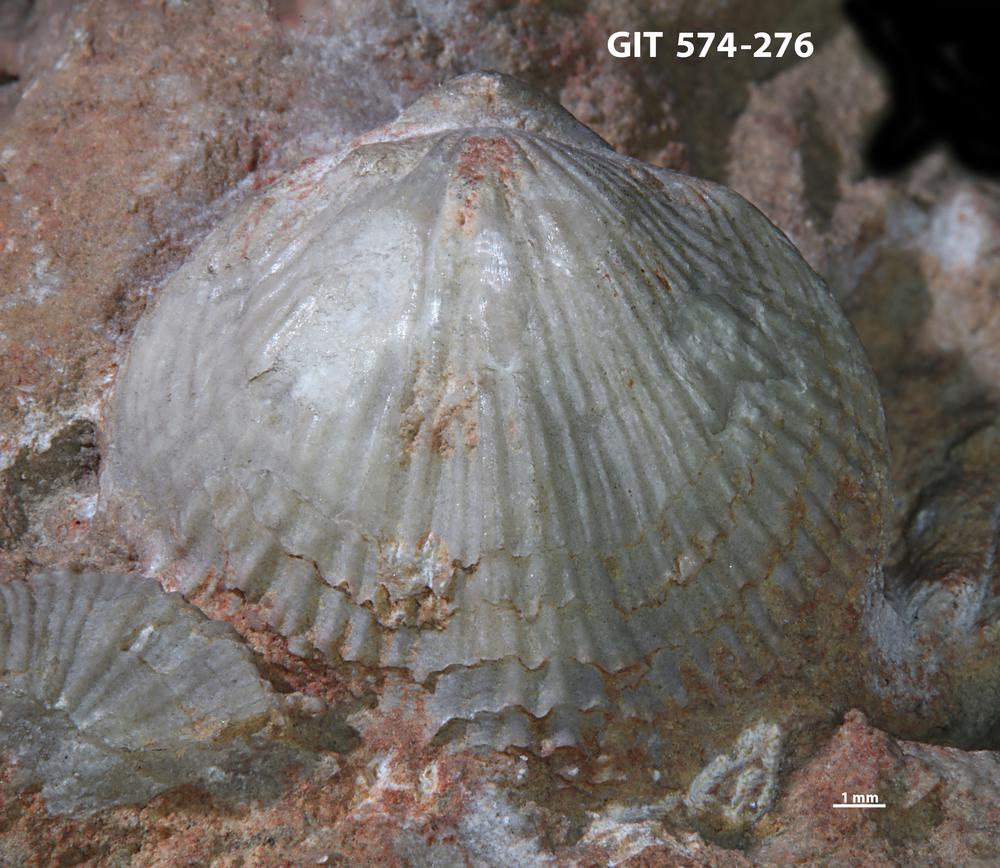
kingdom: Animalia
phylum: Brachiopoda
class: Rhynchonellata
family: Atrypinidae
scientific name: Atrypinidae
